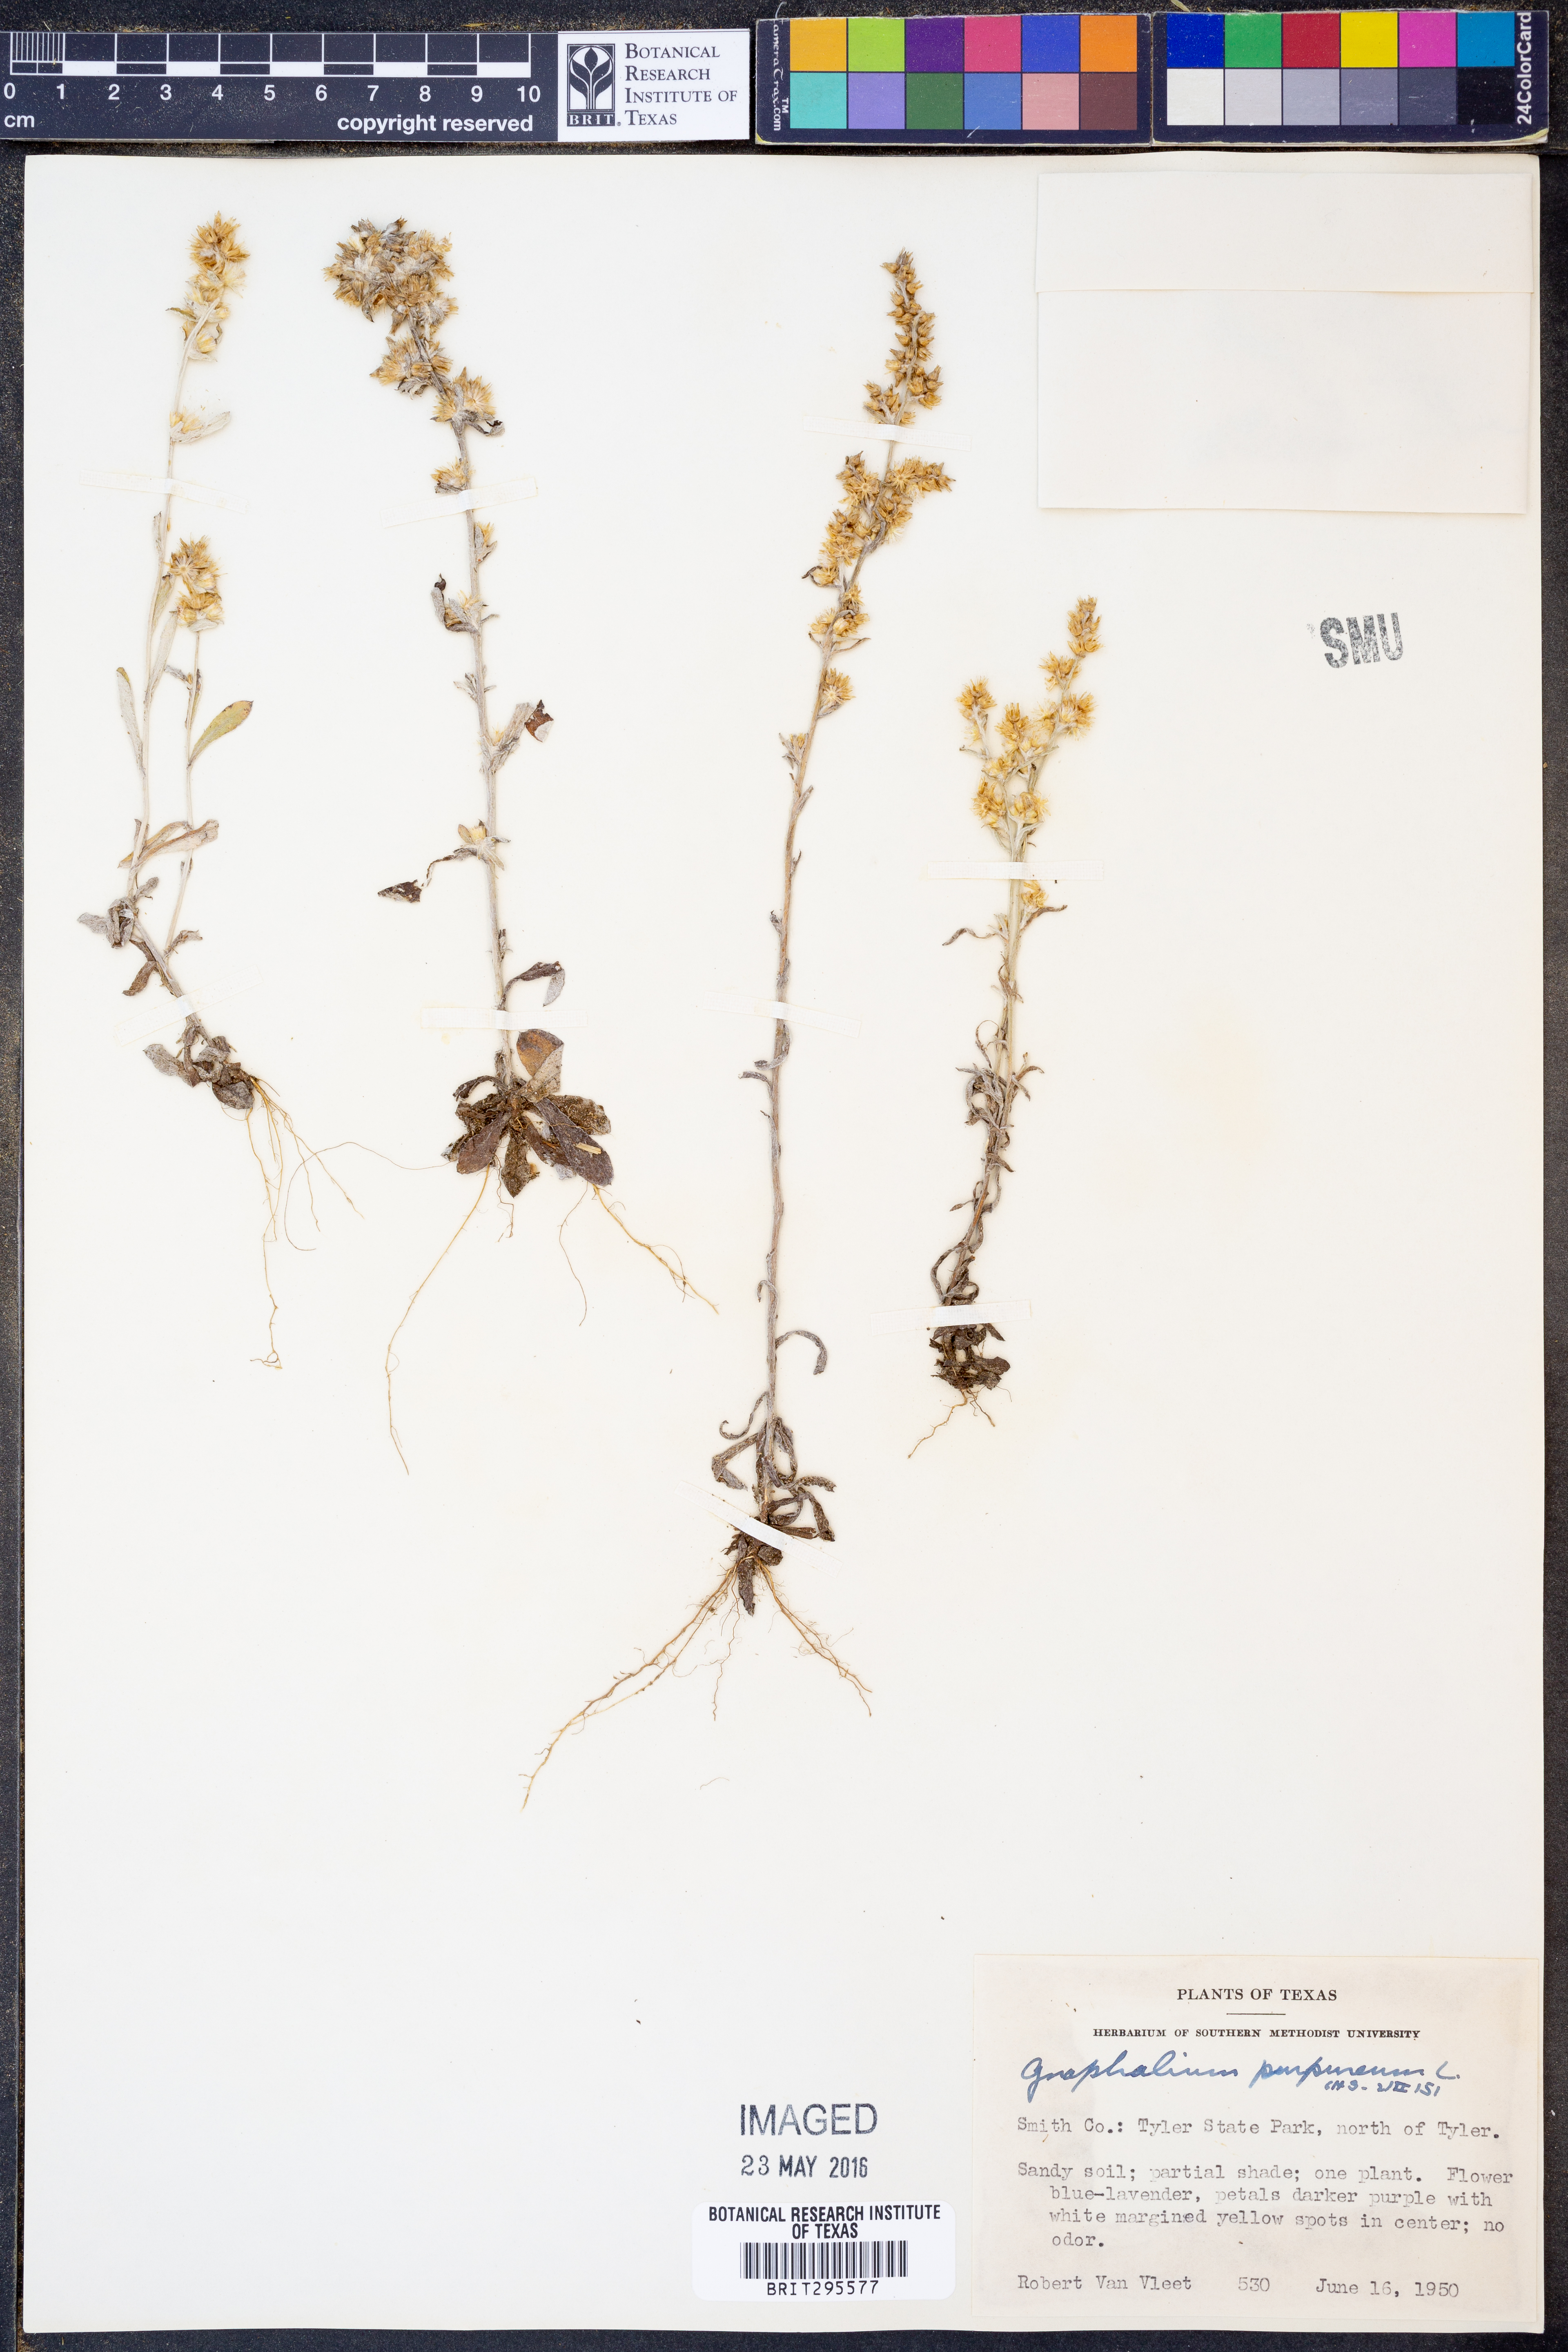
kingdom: Plantae
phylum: Tracheophyta
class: Magnoliopsida
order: Asterales
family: Asteraceae
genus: Gamochaeta
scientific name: Gamochaeta purpurea
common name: Purple cudweed
